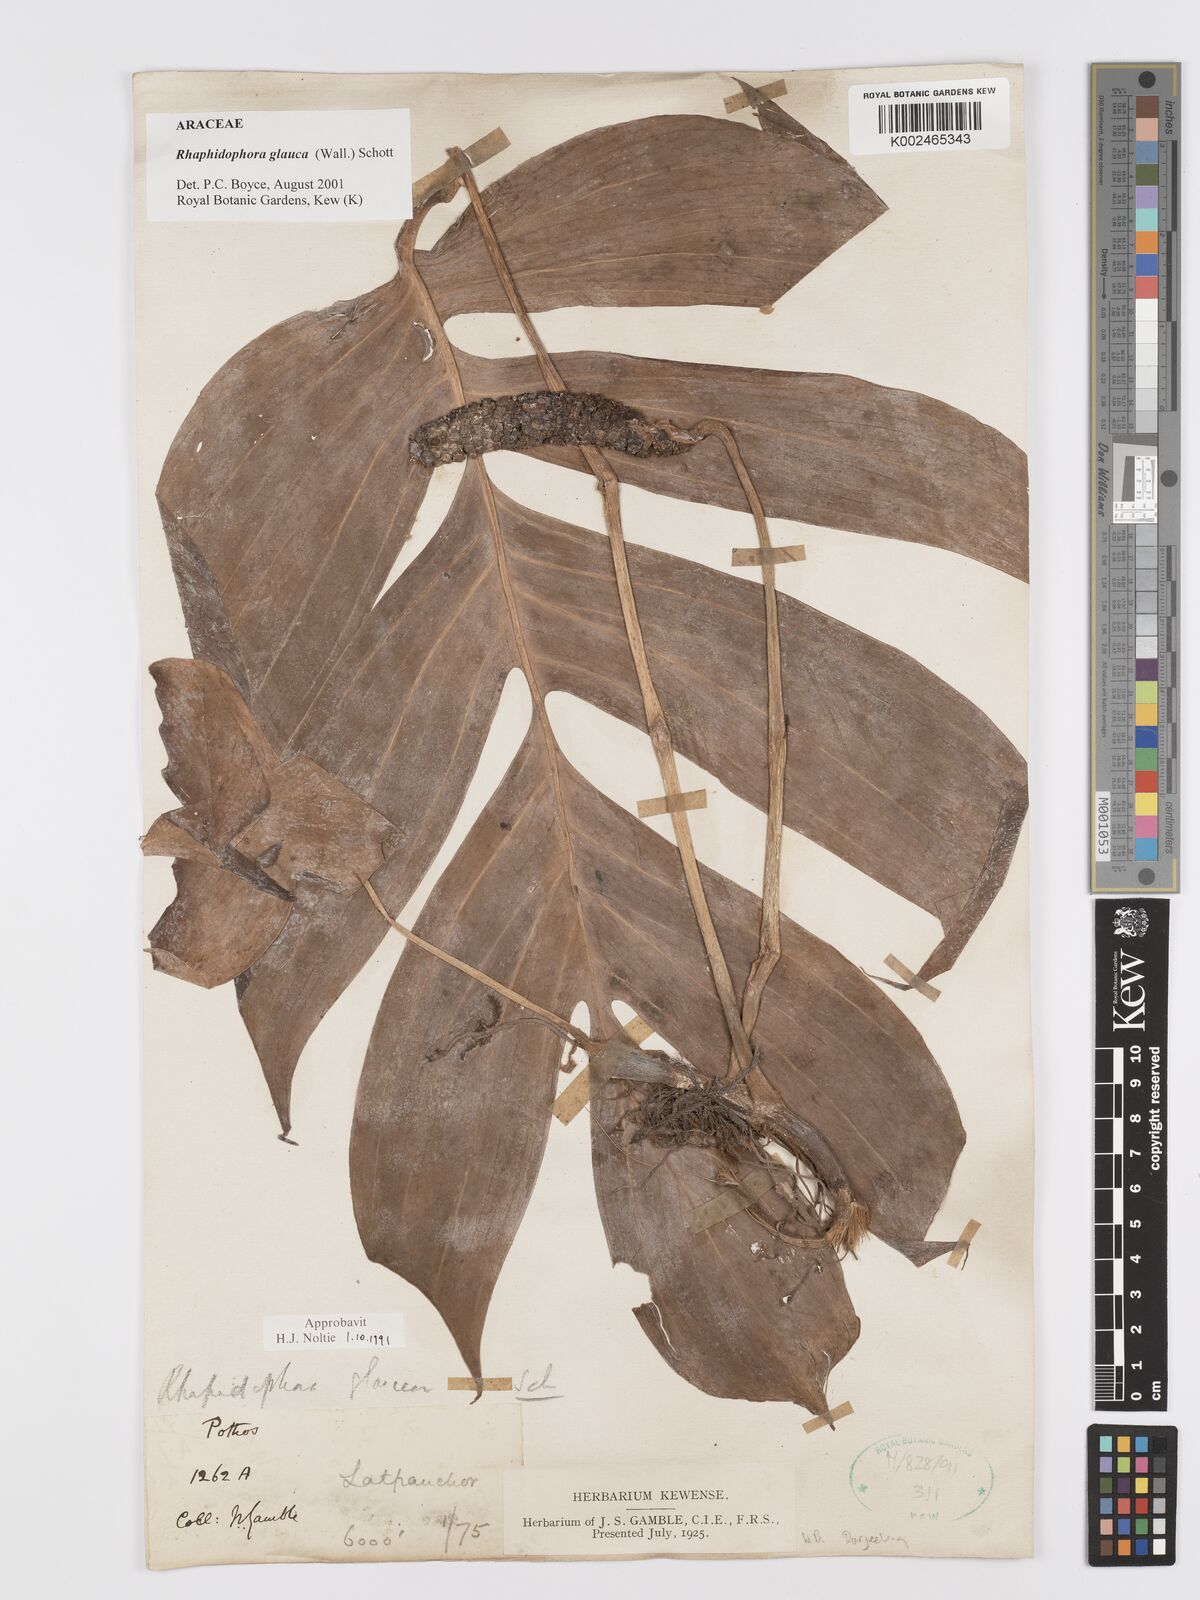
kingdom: Plantae
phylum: Tracheophyta
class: Liliopsida
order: Alismatales
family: Araceae
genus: Rhaphidophora
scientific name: Rhaphidophora glauca
